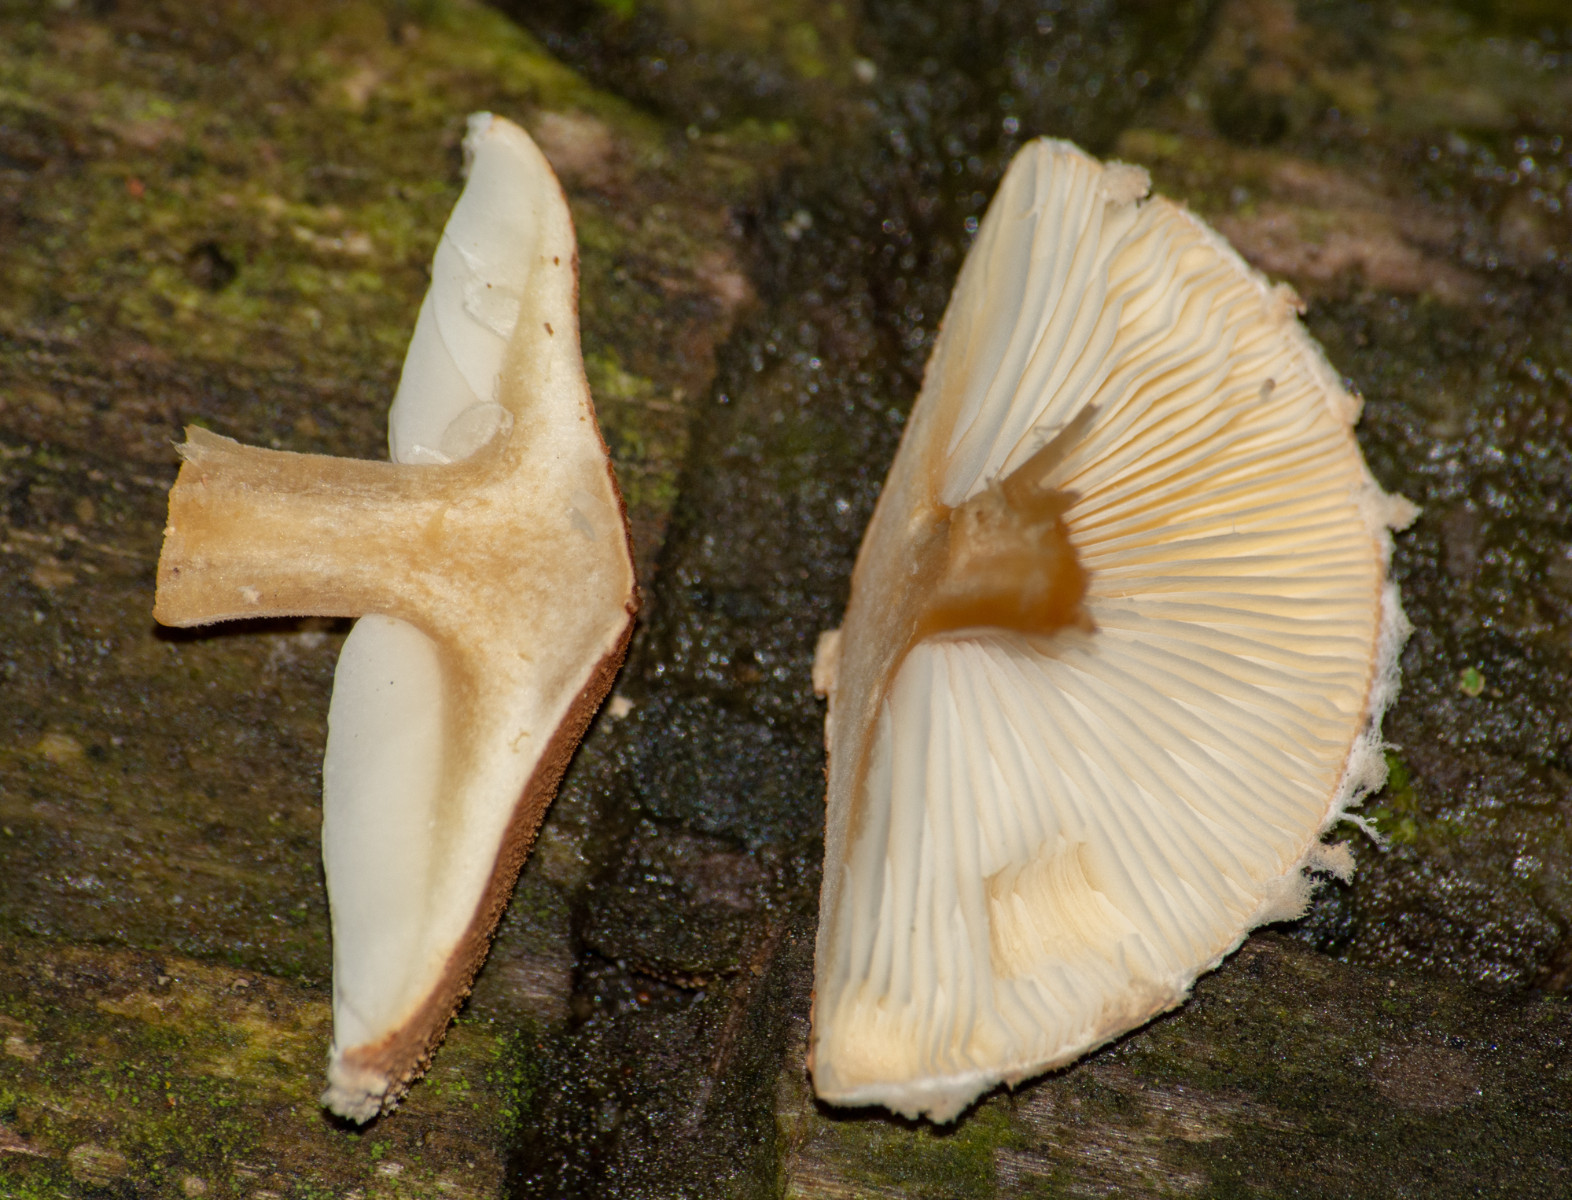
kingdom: Fungi
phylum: Basidiomycota
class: Agaricomycetes
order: Agaricales
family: Tricholomataceae
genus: Cystoderma
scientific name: Cystoderma
